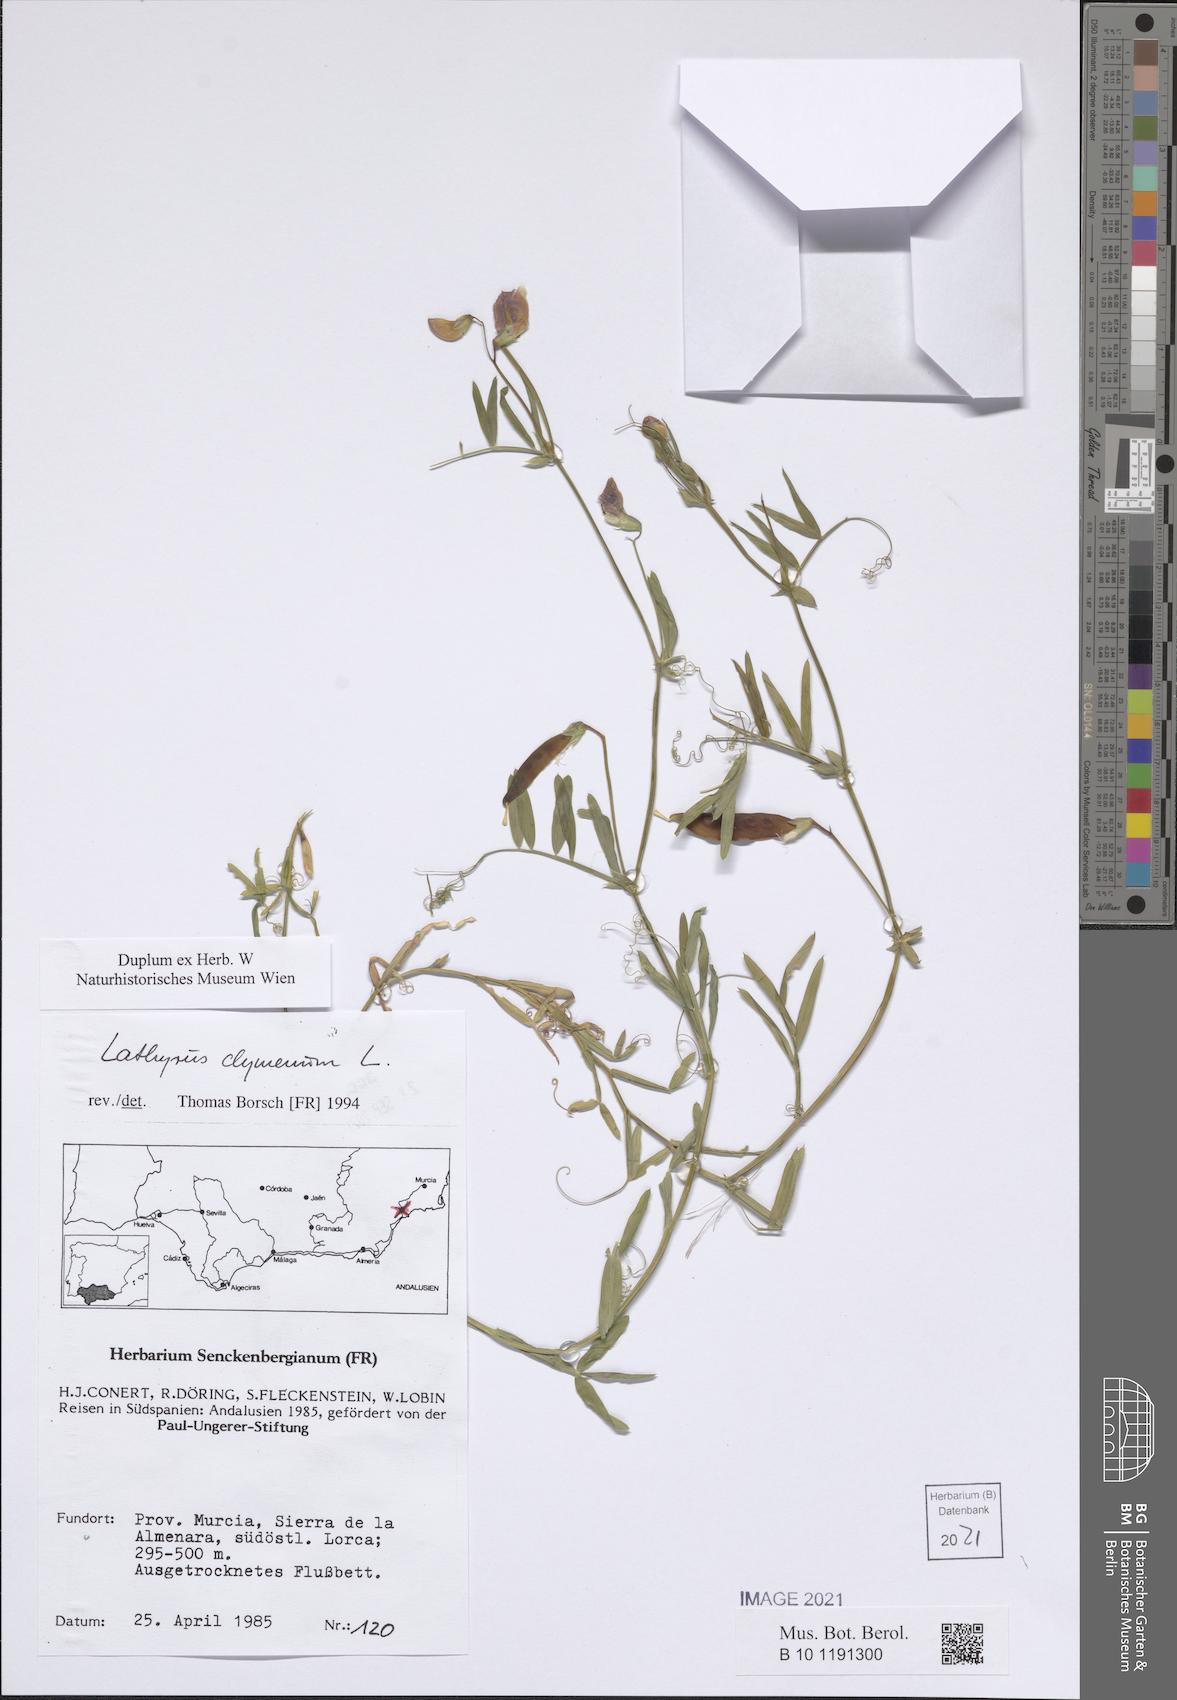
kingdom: Plantae
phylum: Tracheophyta
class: Magnoliopsida
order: Fabales
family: Fabaceae
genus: Lathyrus
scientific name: Lathyrus clymenum
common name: Spanish vetchling
